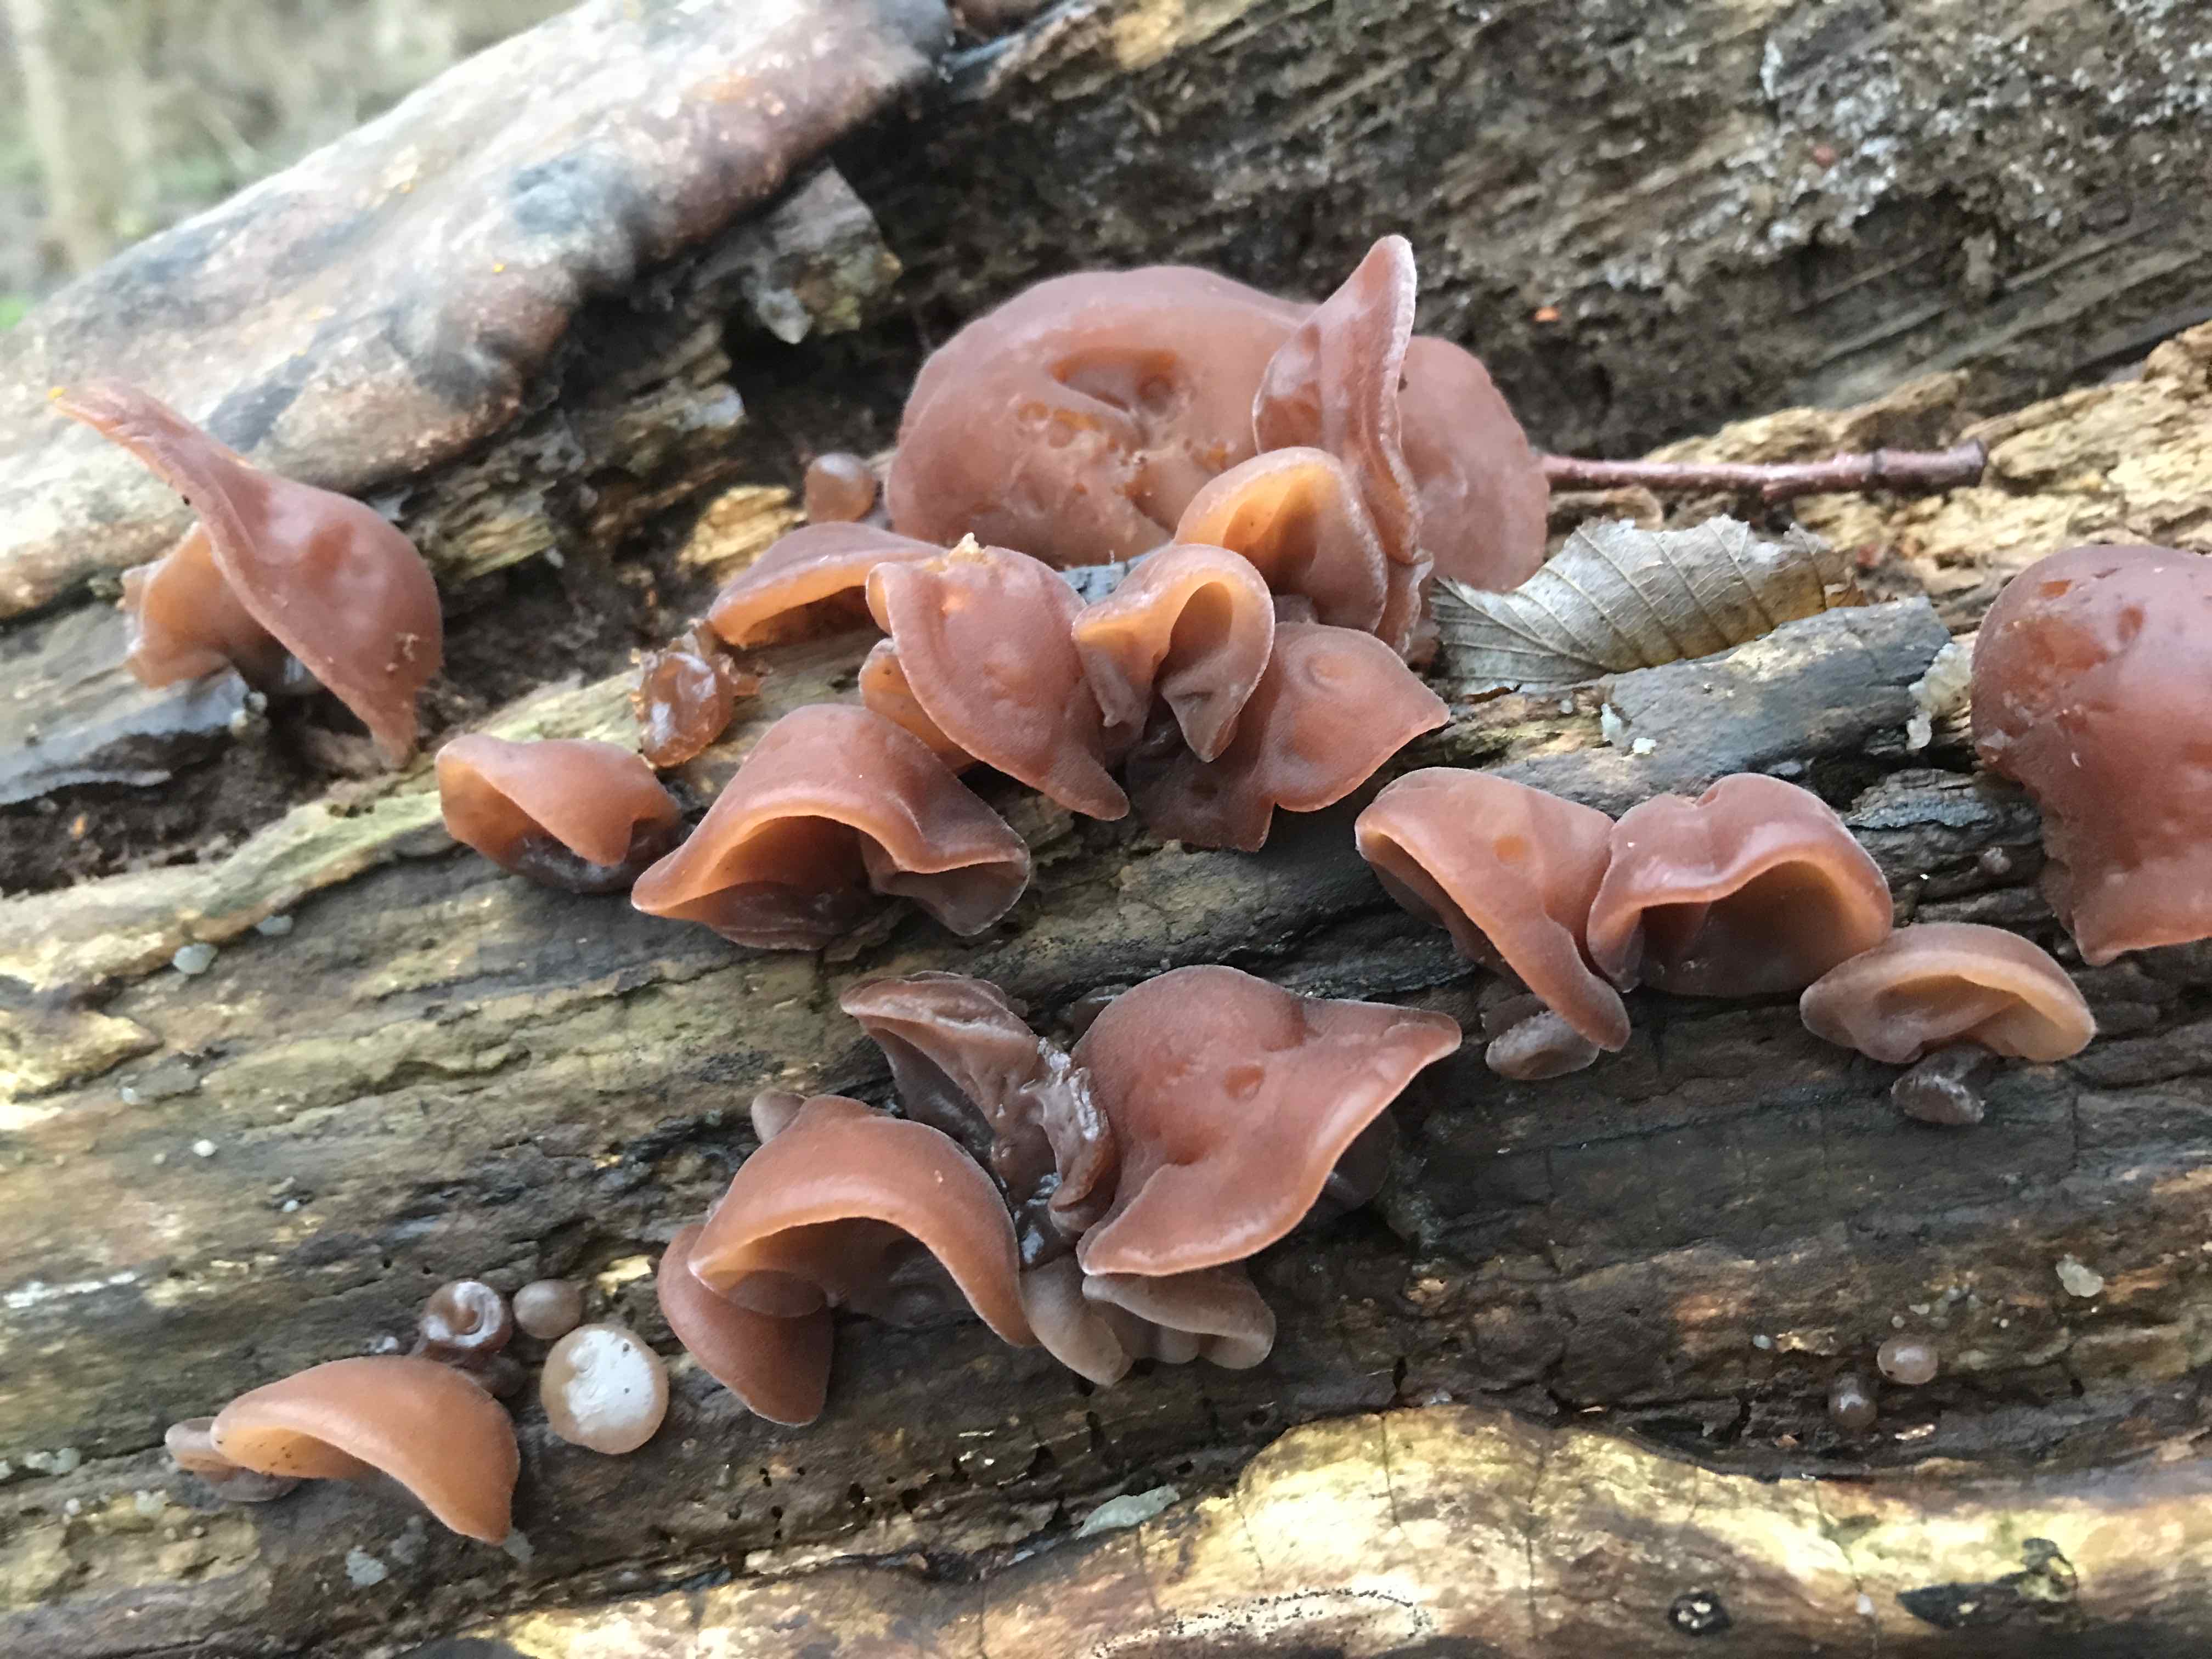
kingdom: Fungi
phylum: Basidiomycota
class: Agaricomycetes
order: Auriculariales
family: Auriculariaceae
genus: Auricularia
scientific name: Auricularia auricula-judae
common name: almindelig judasøre
